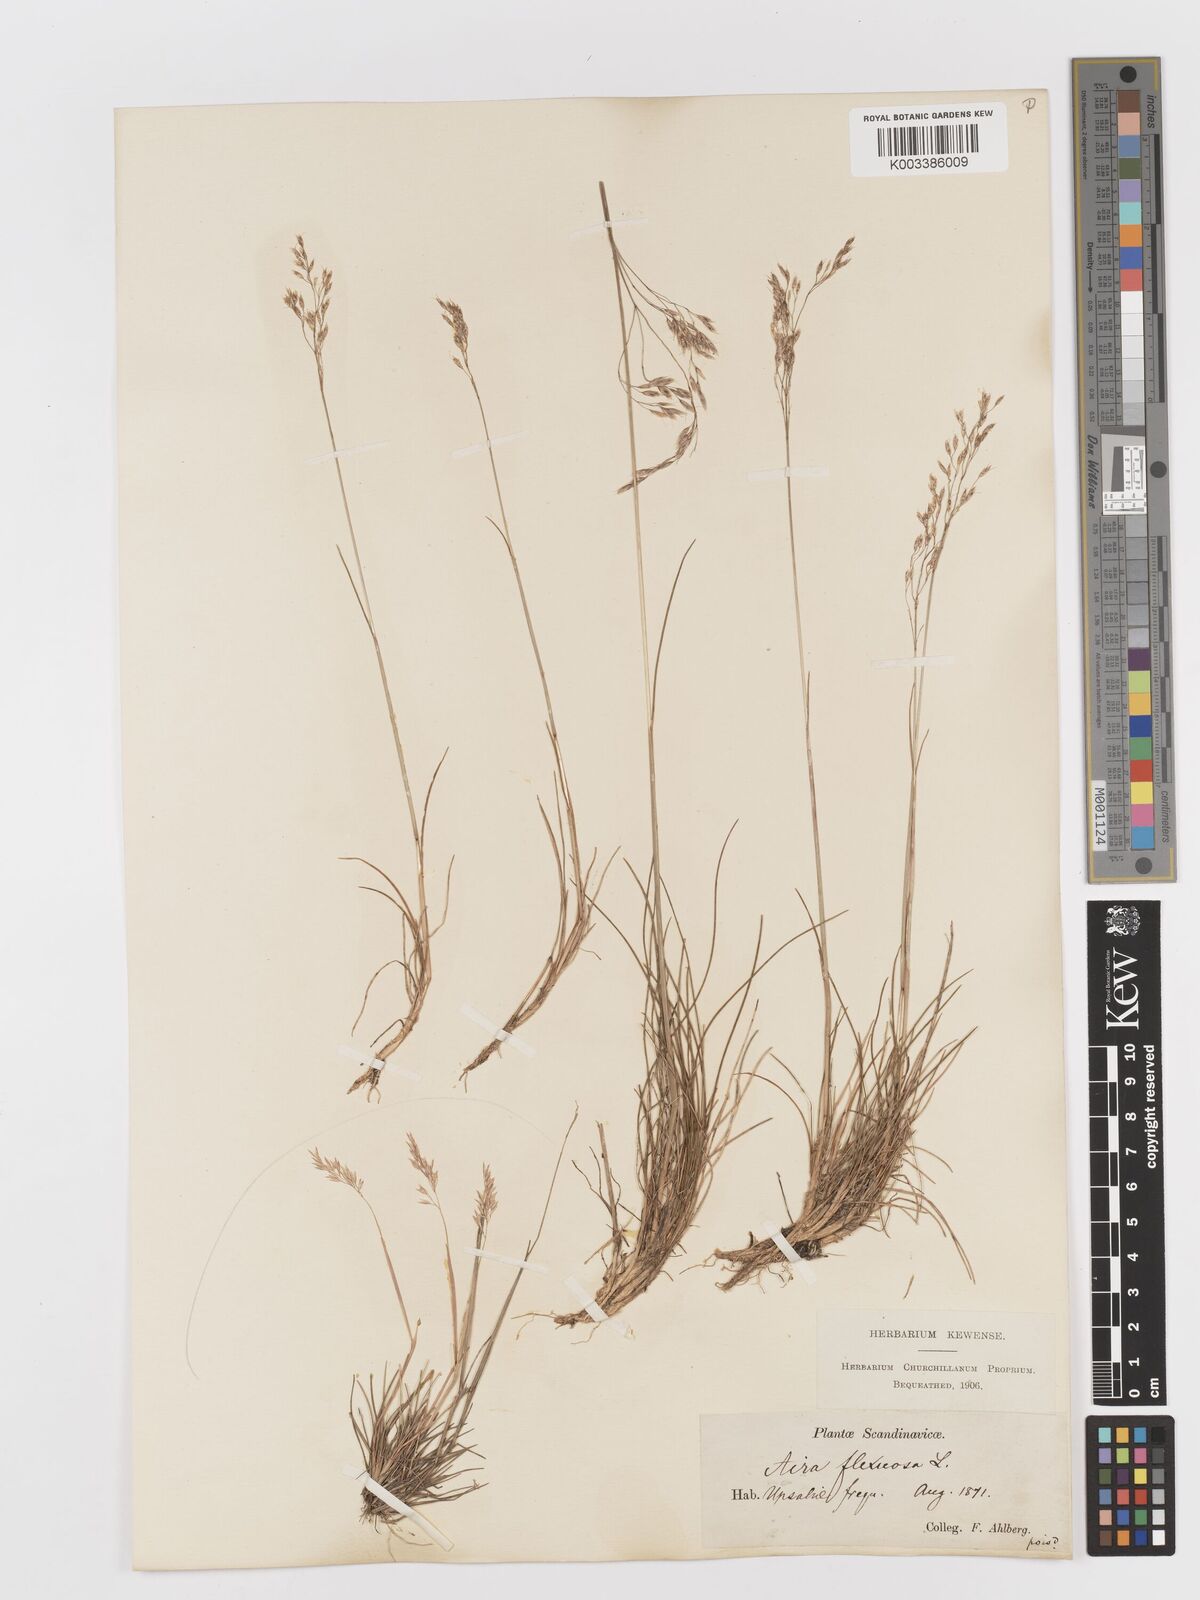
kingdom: Plantae
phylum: Tracheophyta
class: Liliopsida
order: Poales
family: Poaceae
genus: Avenella
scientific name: Avenella flexuosa
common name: Wavy hairgrass
